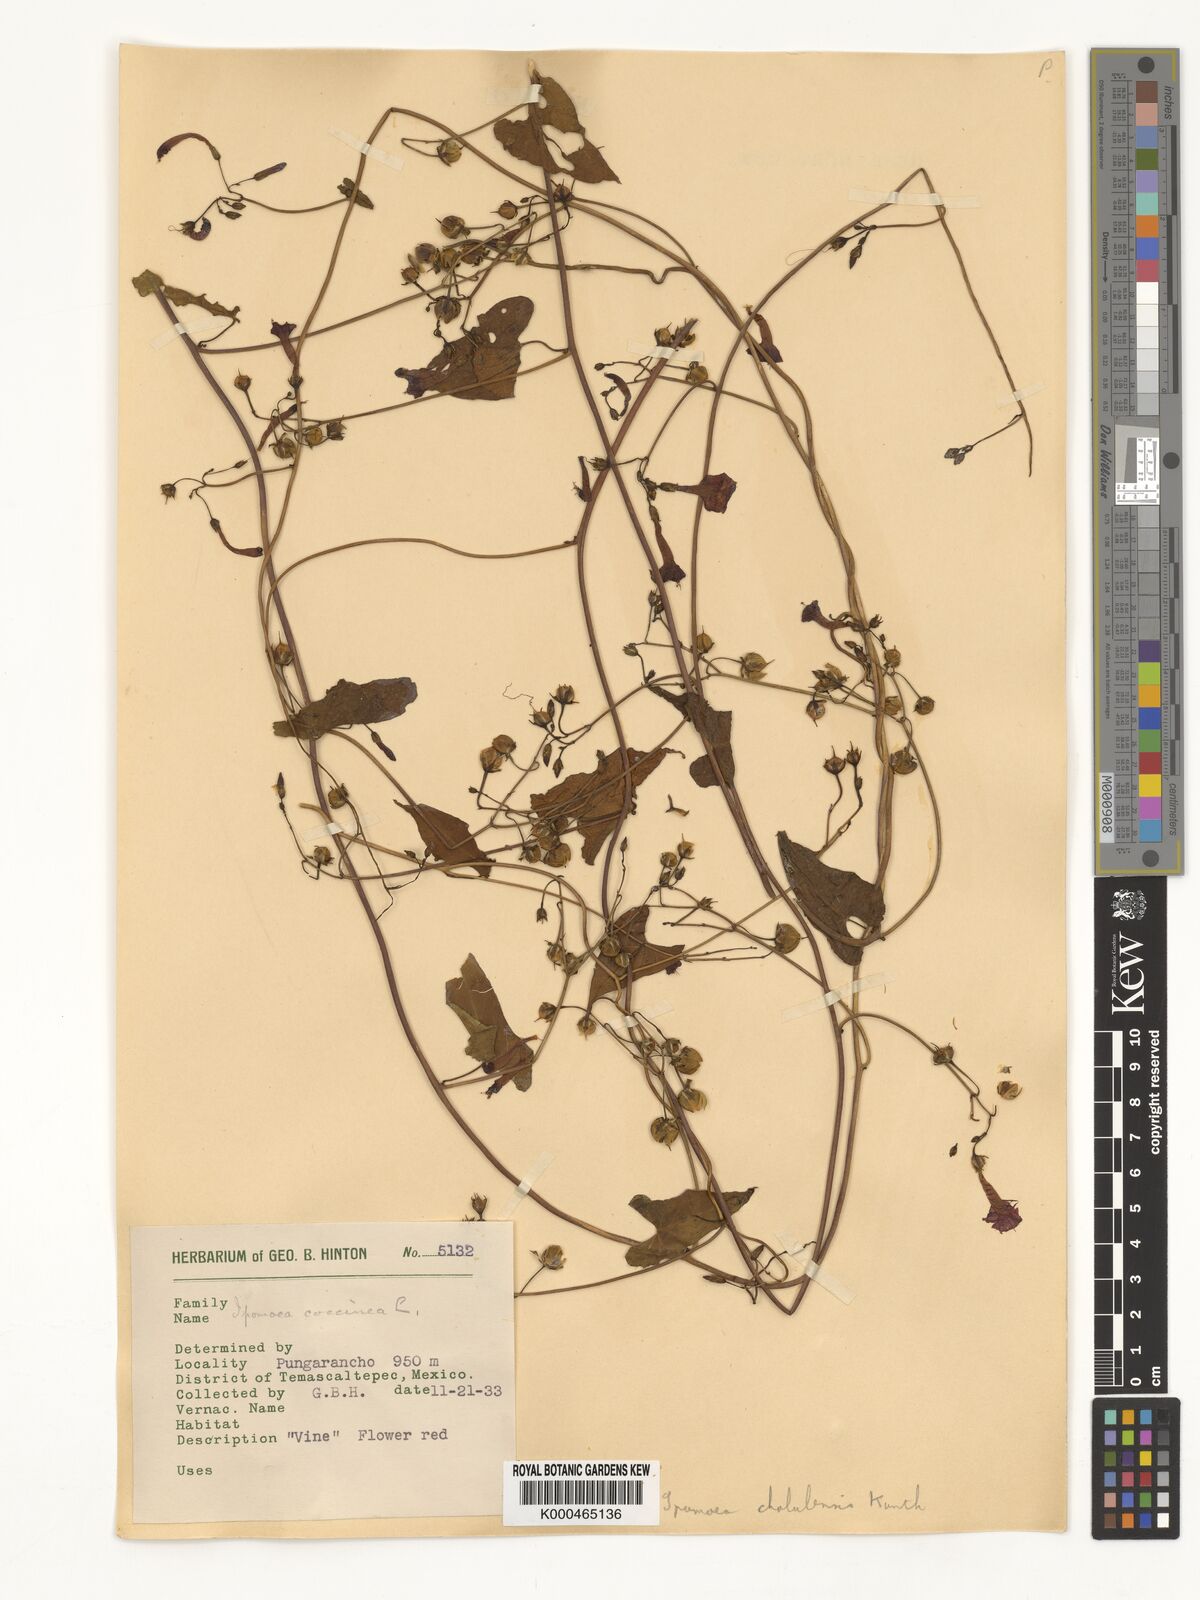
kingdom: Plantae
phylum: Tracheophyta
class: Magnoliopsida
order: Solanales
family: Convolvulaceae
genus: Ipomoea
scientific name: Ipomoea cholulensis
